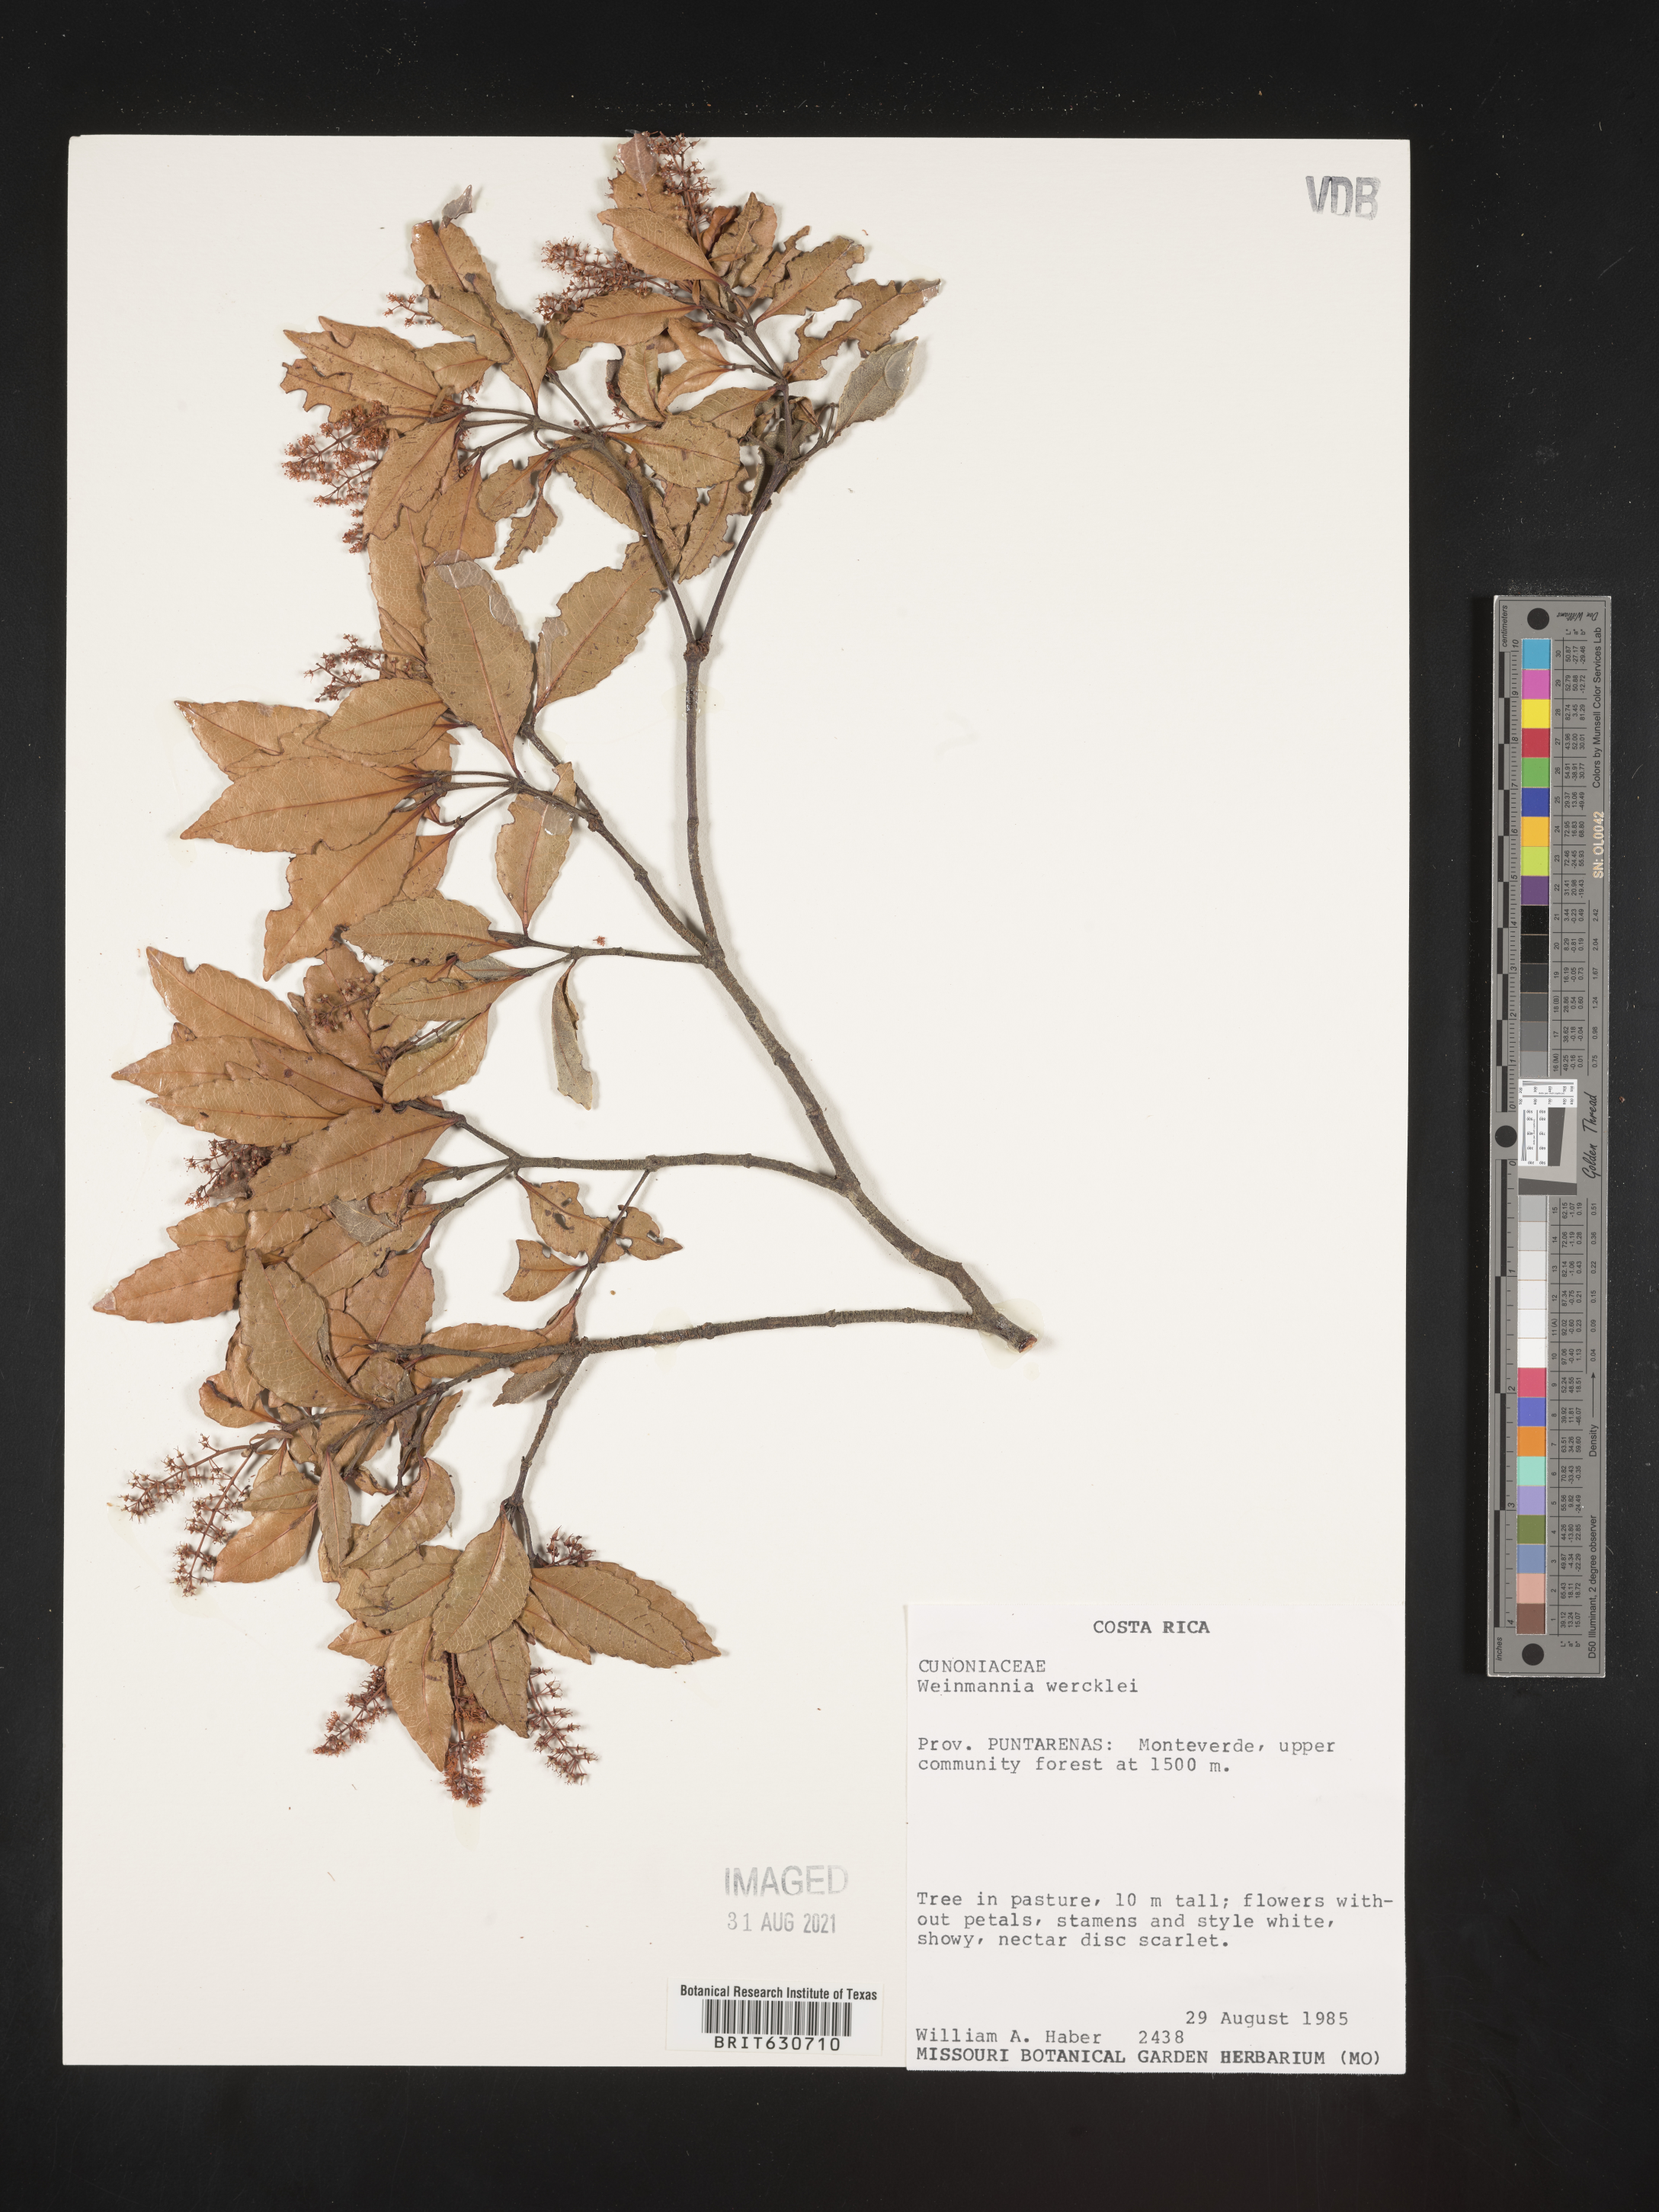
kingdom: Plantae
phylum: Tracheophyta
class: Magnoliopsida
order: Oxalidales
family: Cunoniaceae
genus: Weinmannia
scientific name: Weinmannia wercklei
